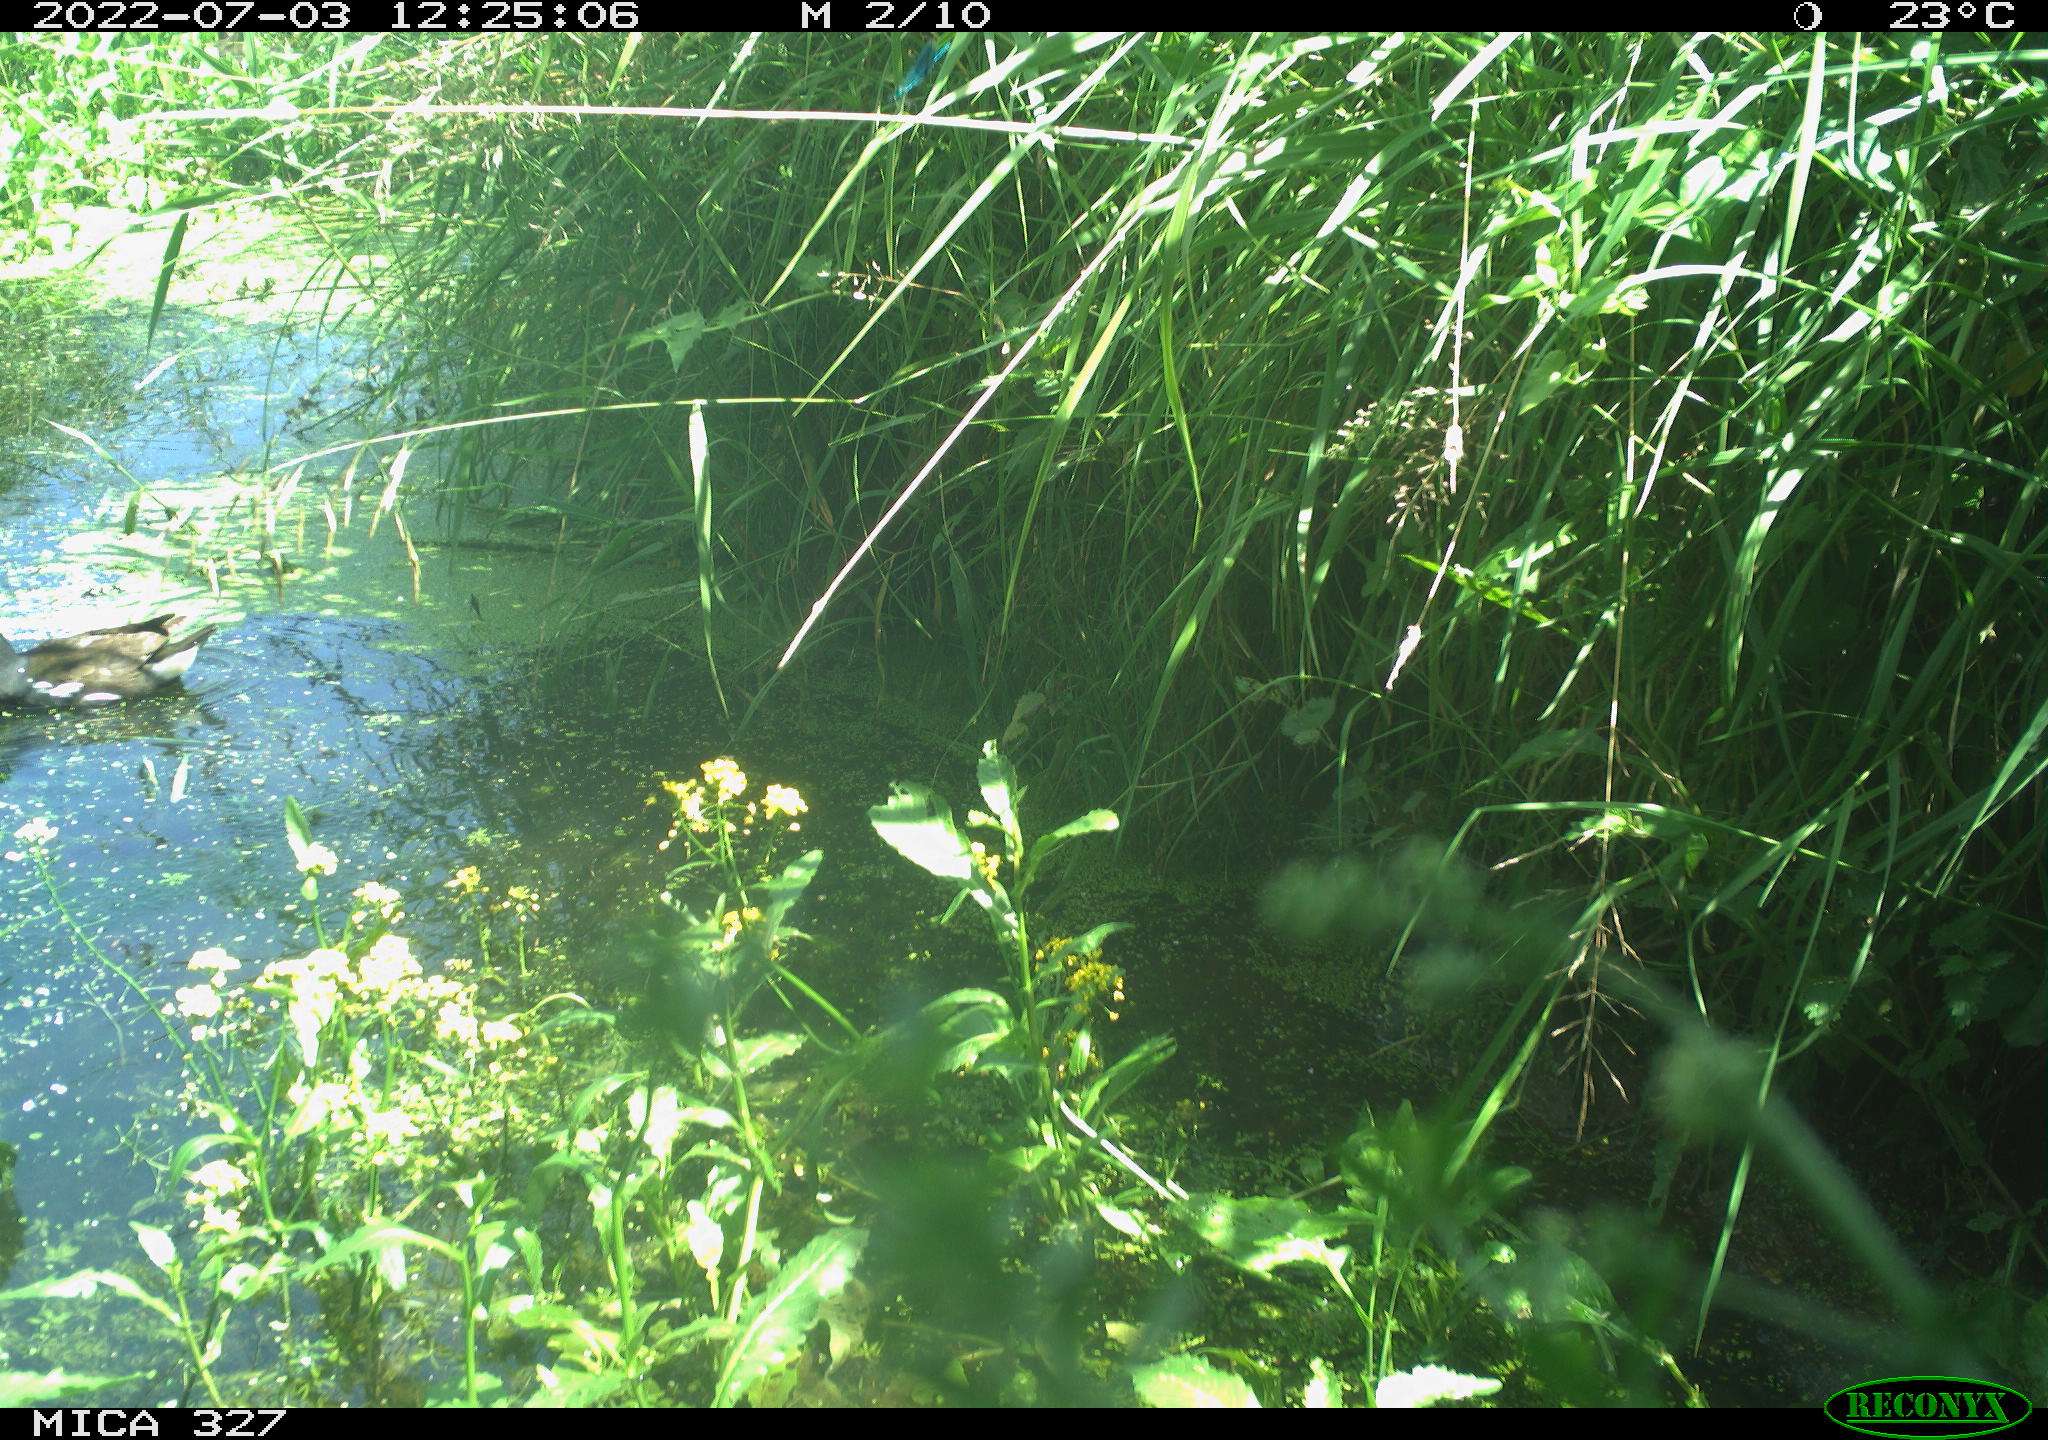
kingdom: Animalia
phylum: Chordata
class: Aves
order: Gruiformes
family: Rallidae
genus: Gallinula
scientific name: Gallinula chloropus
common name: Common moorhen
